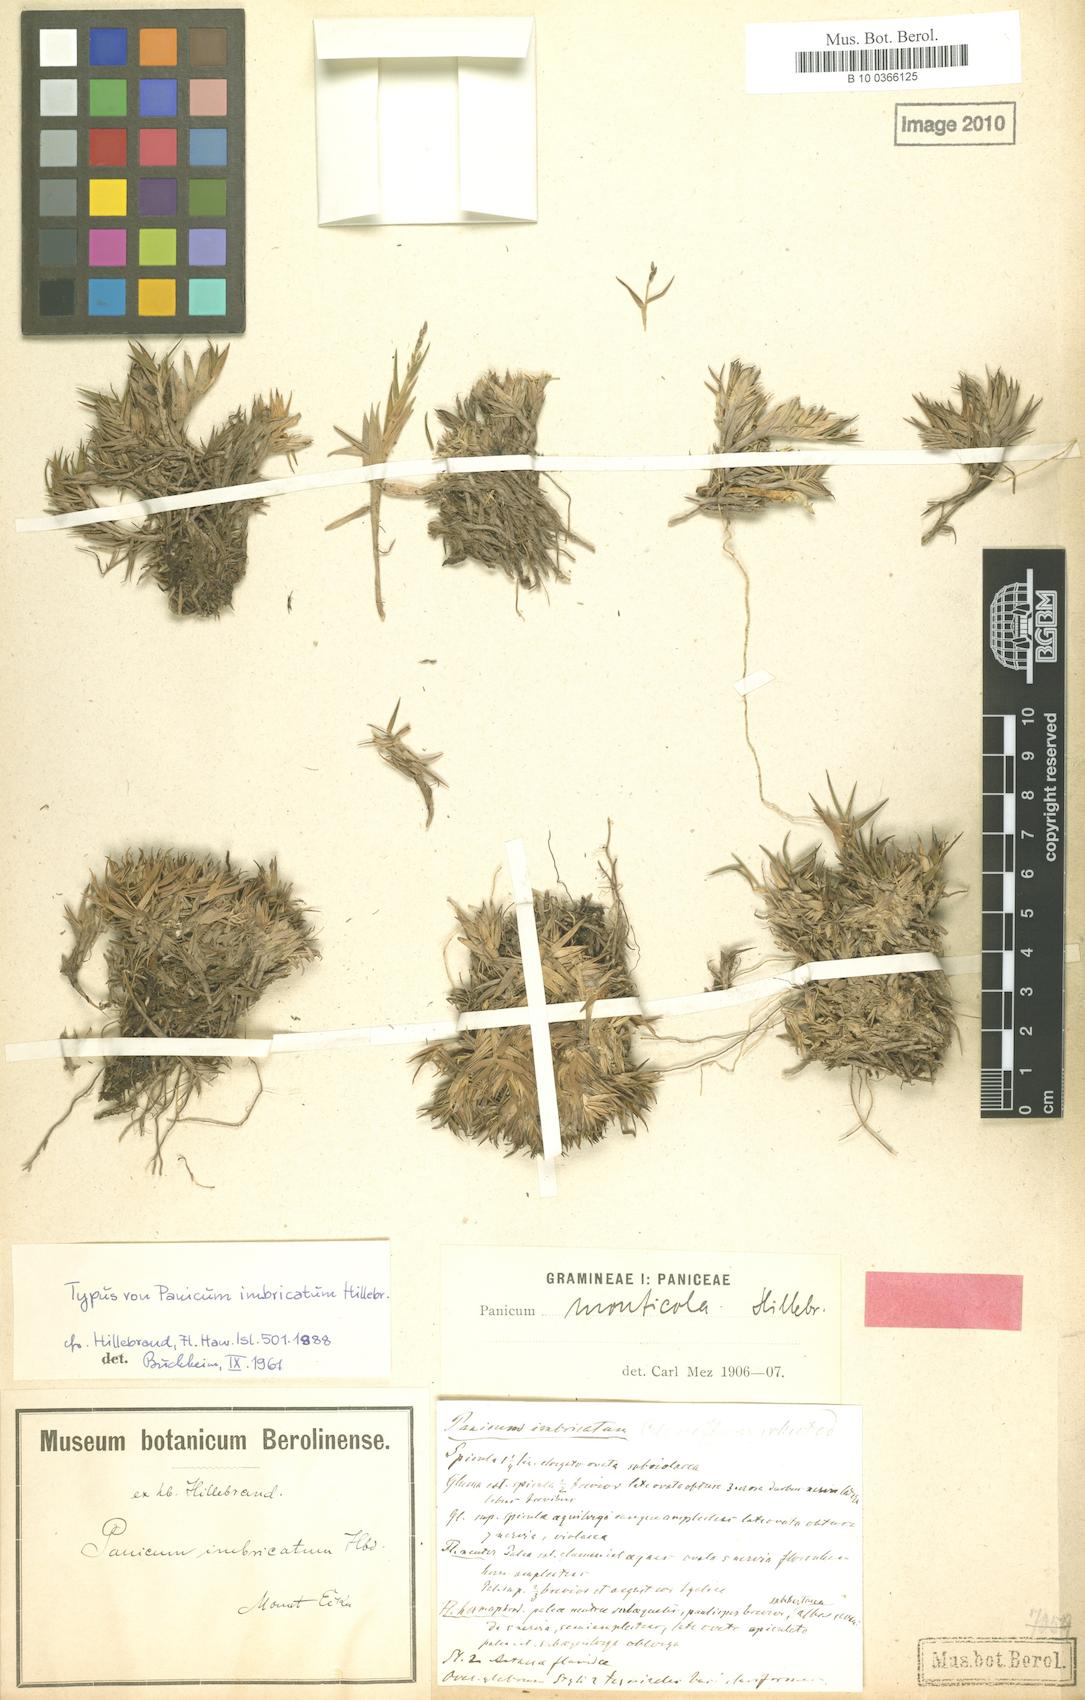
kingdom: Plantae
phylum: Tracheophyta
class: Liliopsida
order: Poales
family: Poaceae
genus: Dichanthelium
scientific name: Dichanthelium cynodon
